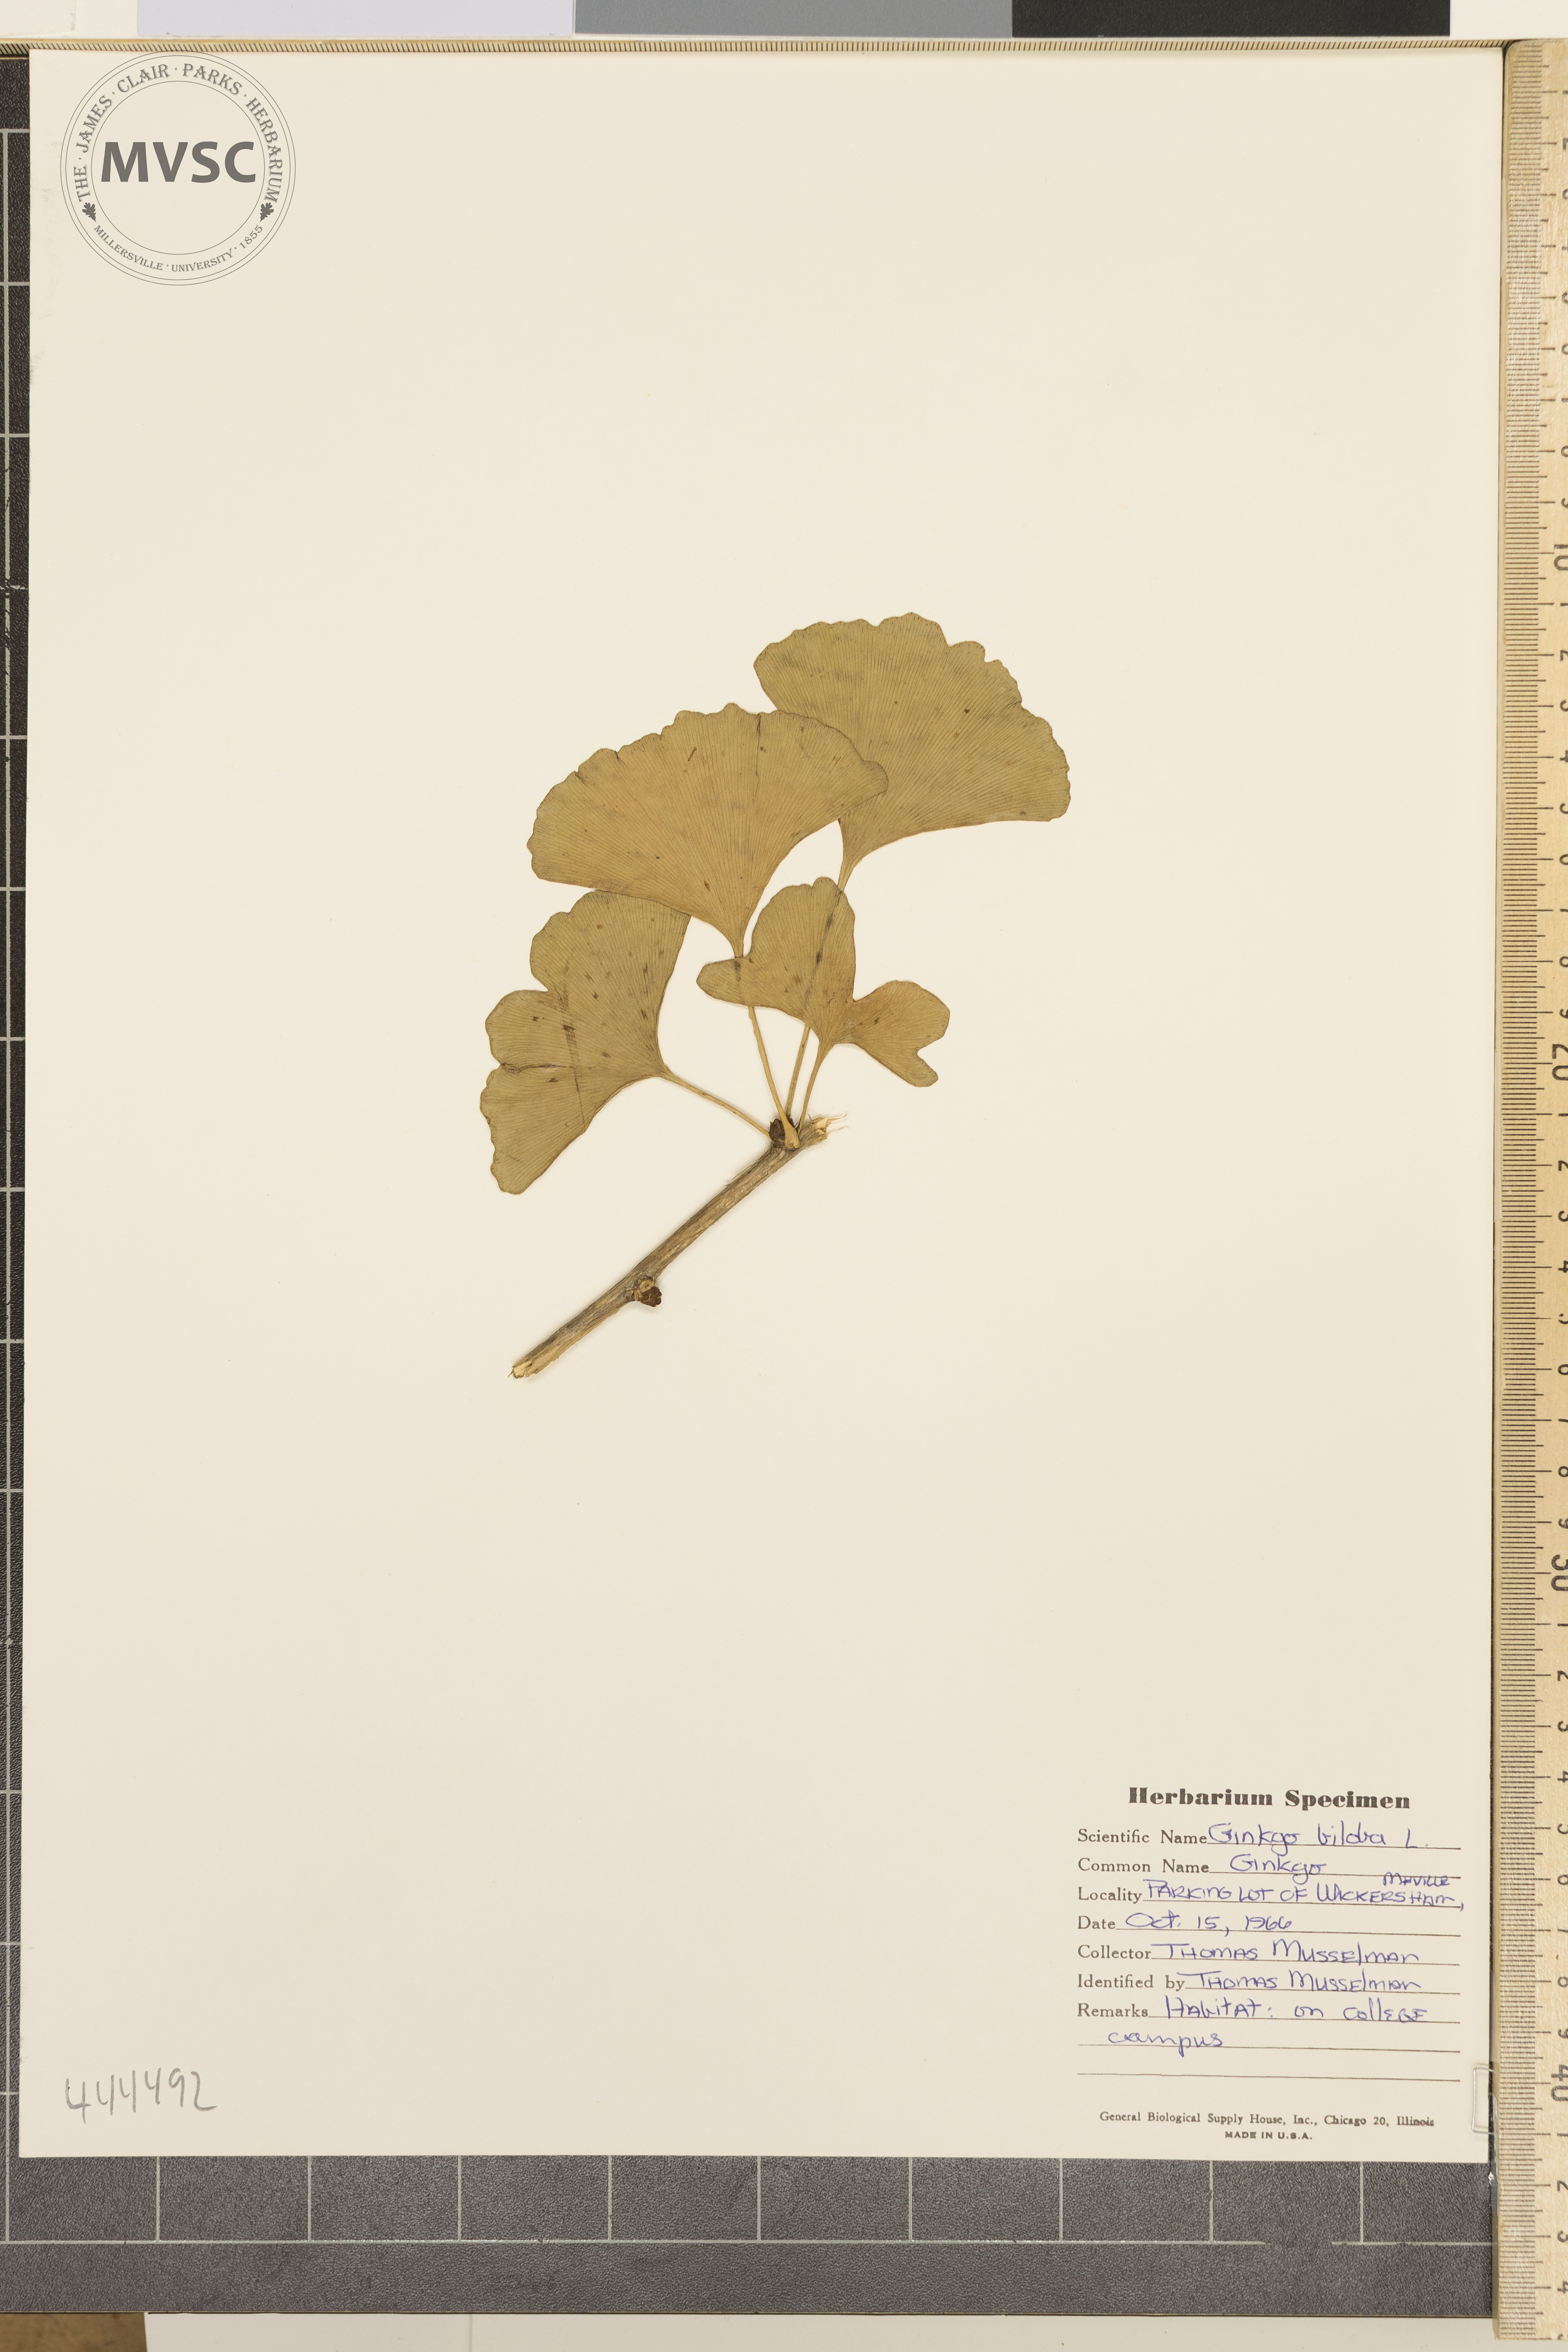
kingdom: Plantae
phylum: Tracheophyta
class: Ginkgoopsida
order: Ginkgoales
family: Ginkgoaceae
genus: Ginkgo
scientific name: Ginkgo biloba
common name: Ginkgo
